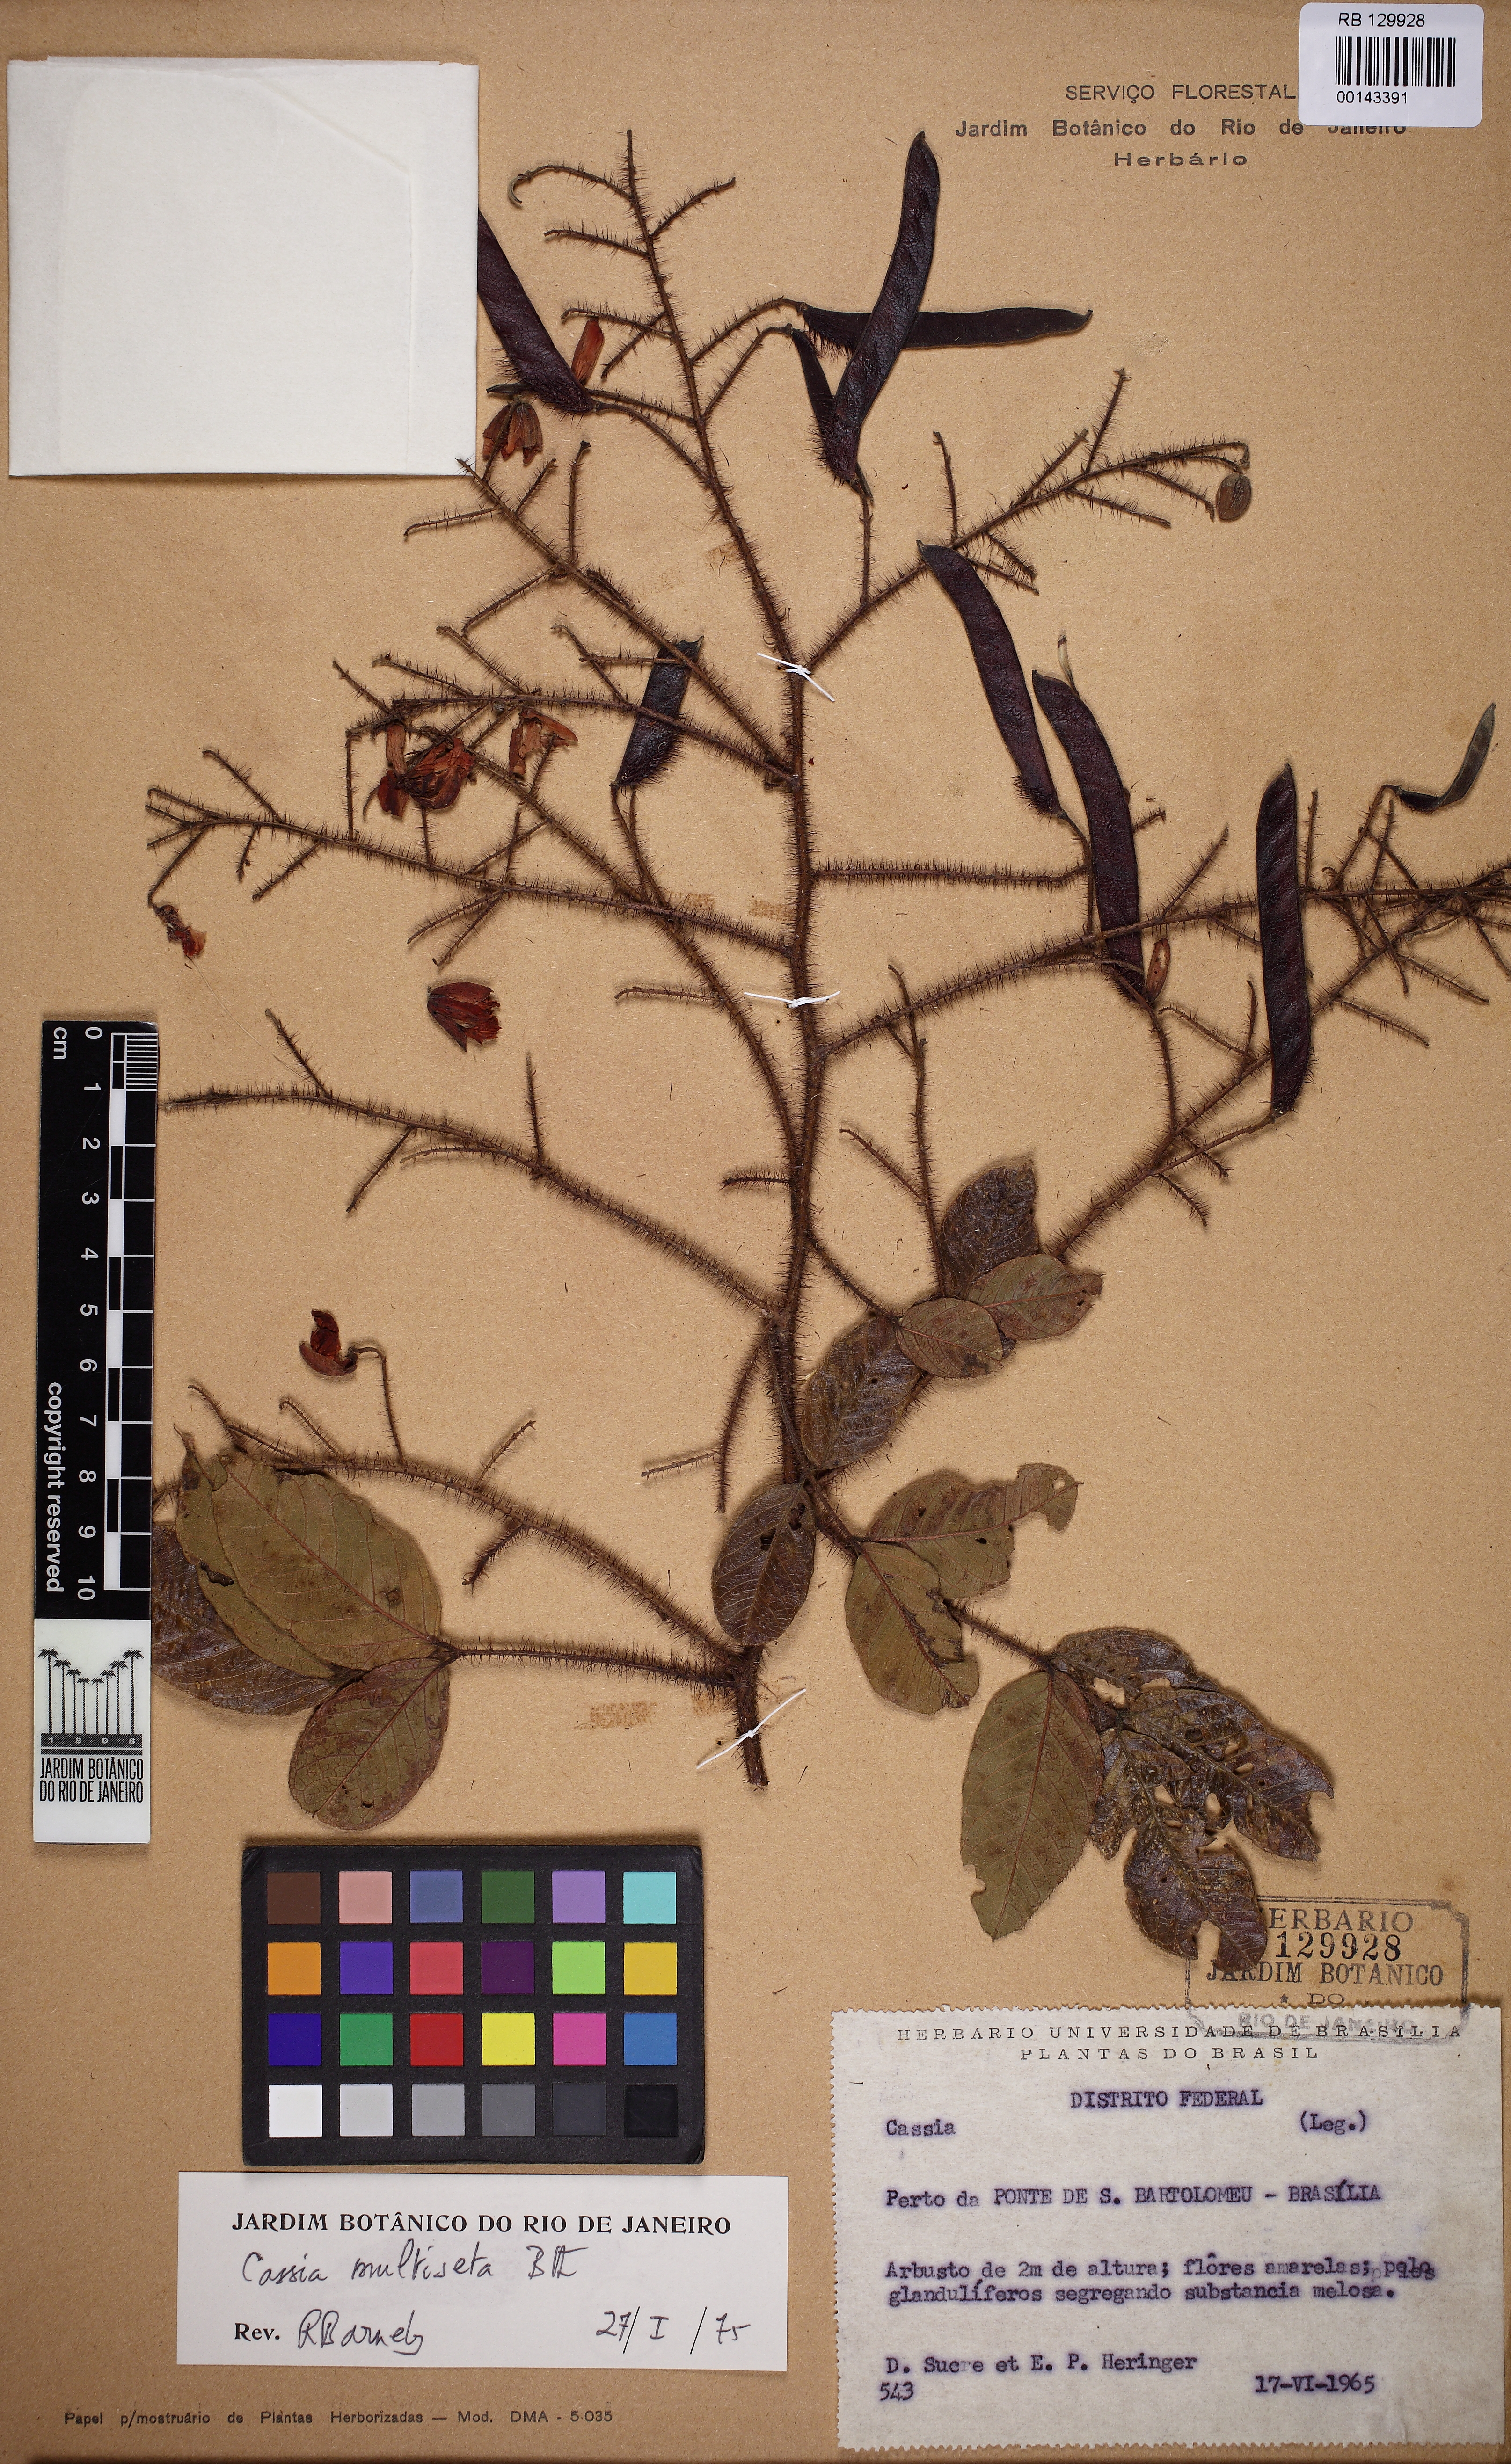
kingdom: Plantae
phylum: Tracheophyta
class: Magnoliopsida
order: Fabales
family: Fabaceae
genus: Chamaecrista
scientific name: Chamaecrista multiseta
